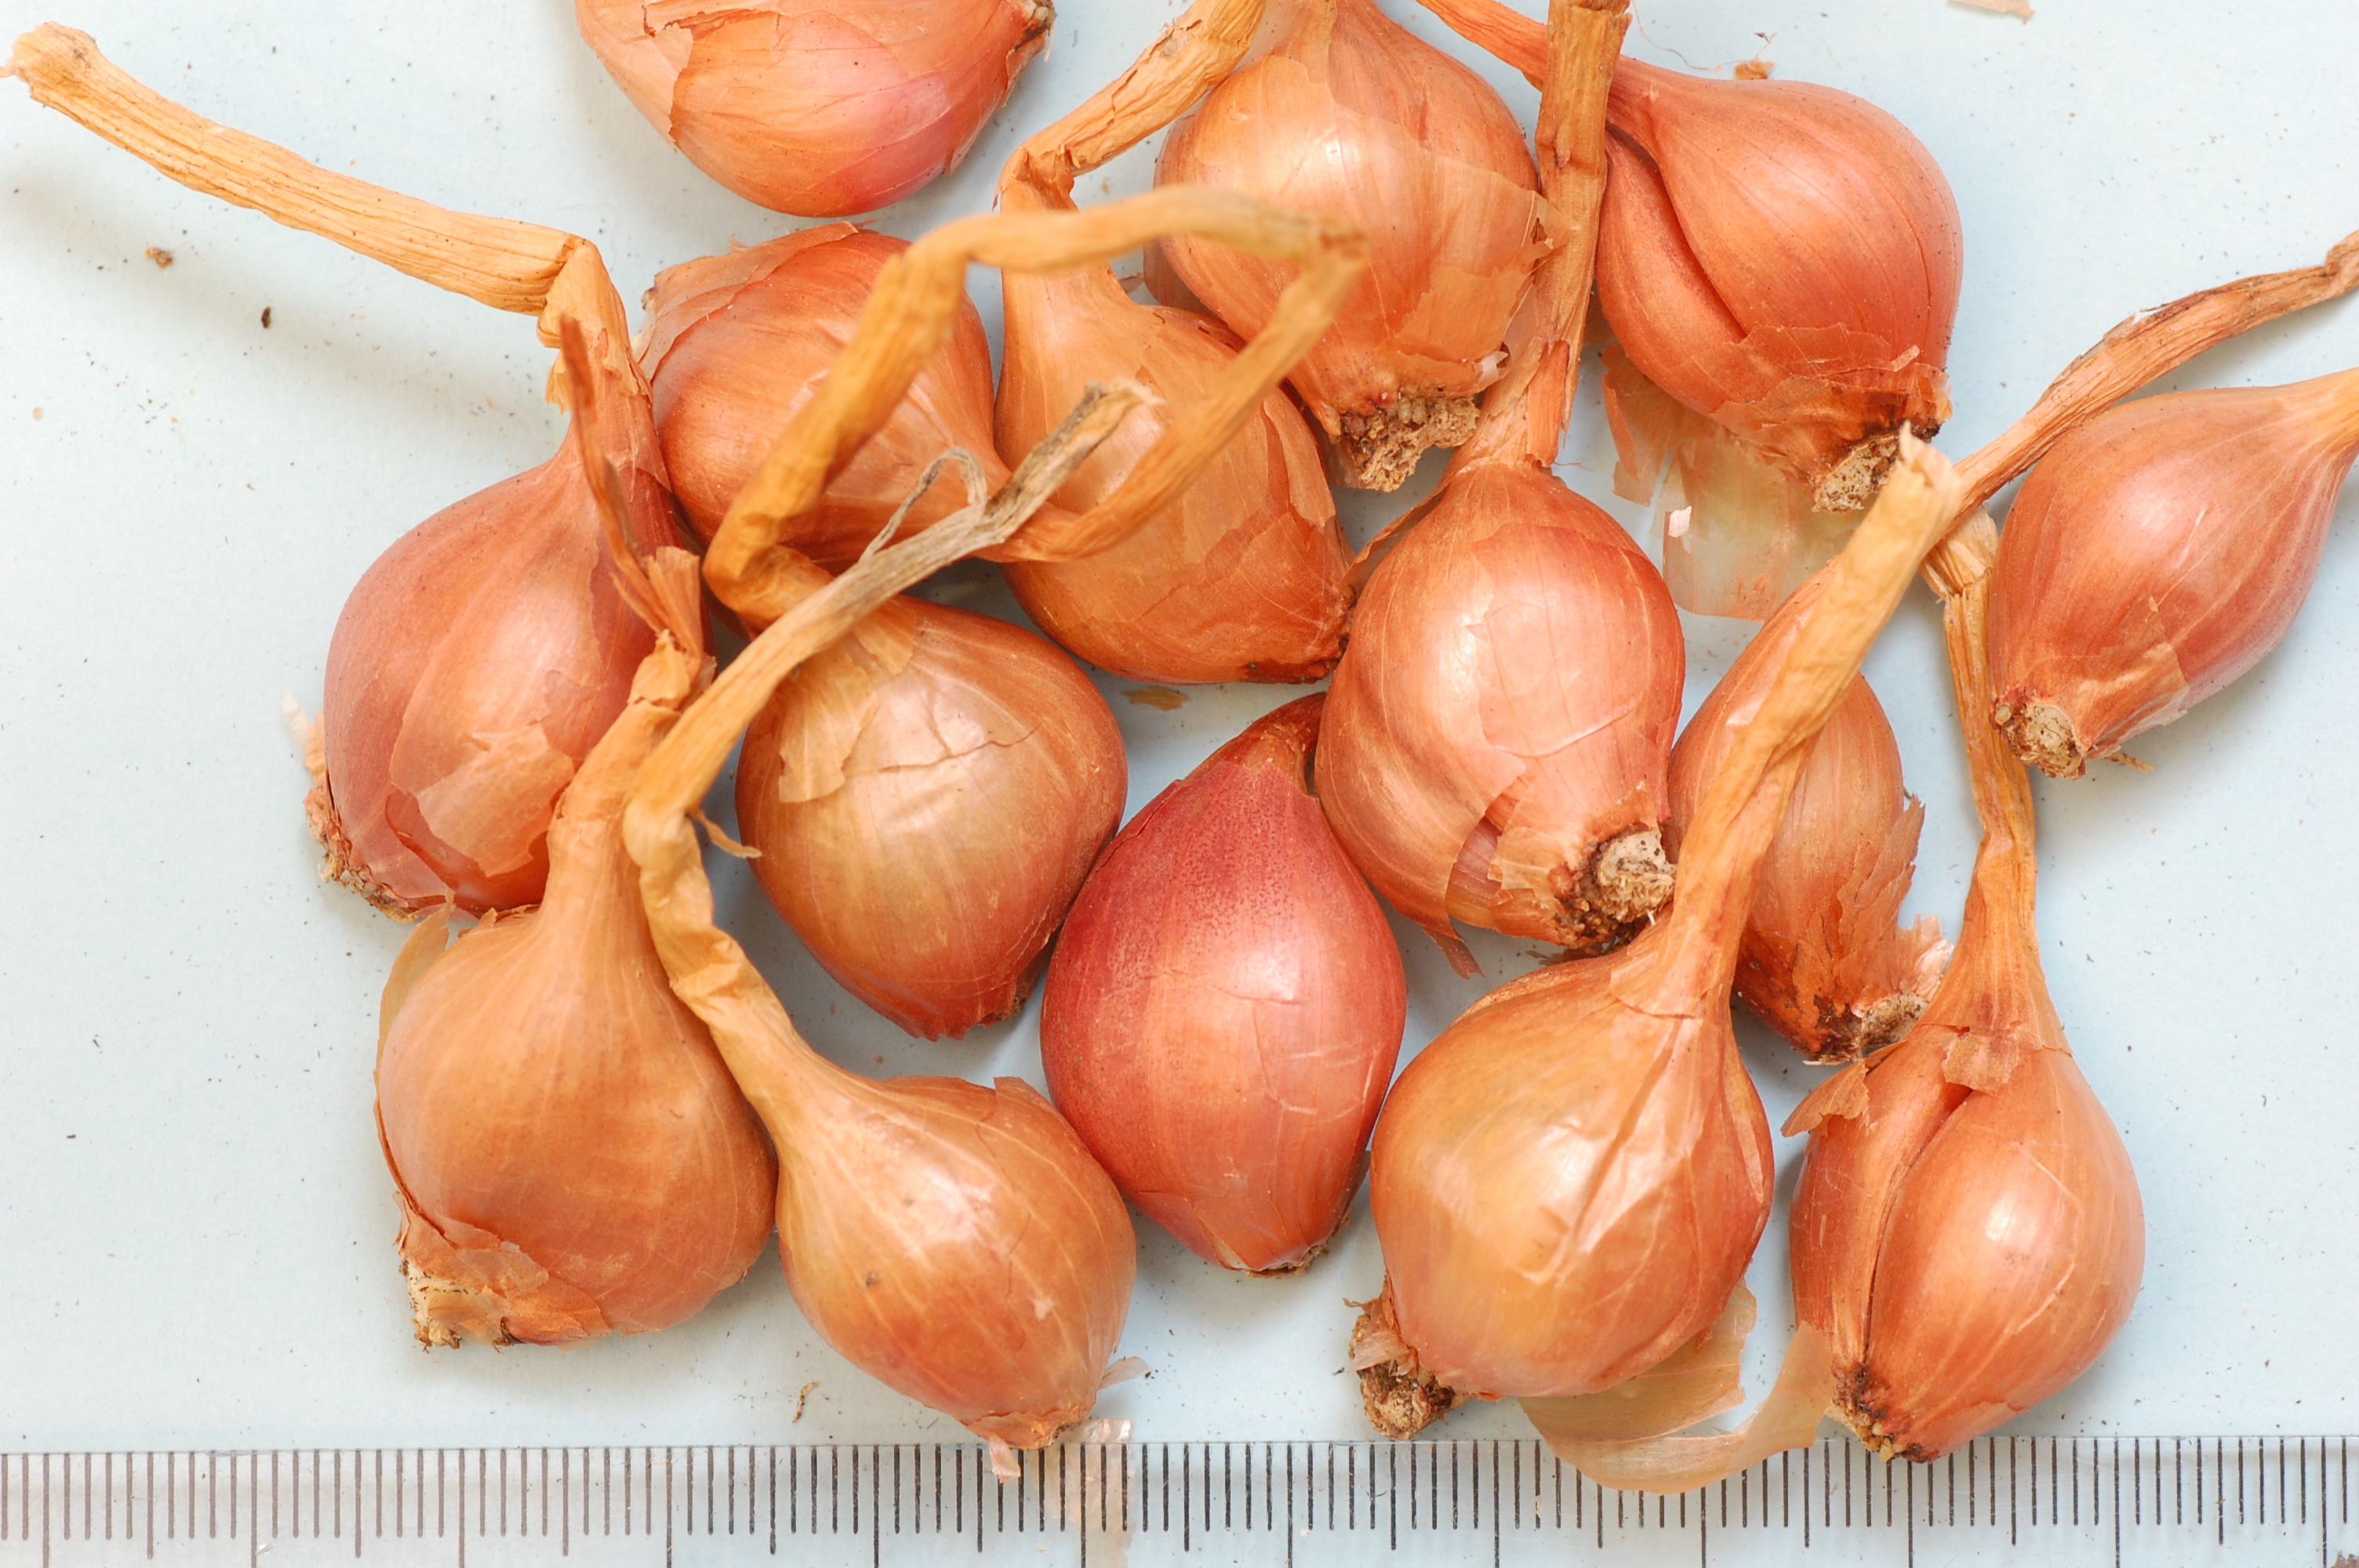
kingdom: Plantae
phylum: Tracheophyta
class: Liliopsida
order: Asparagales
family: Amaryllidaceae
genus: Allium
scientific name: Allium cepa
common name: Onion
